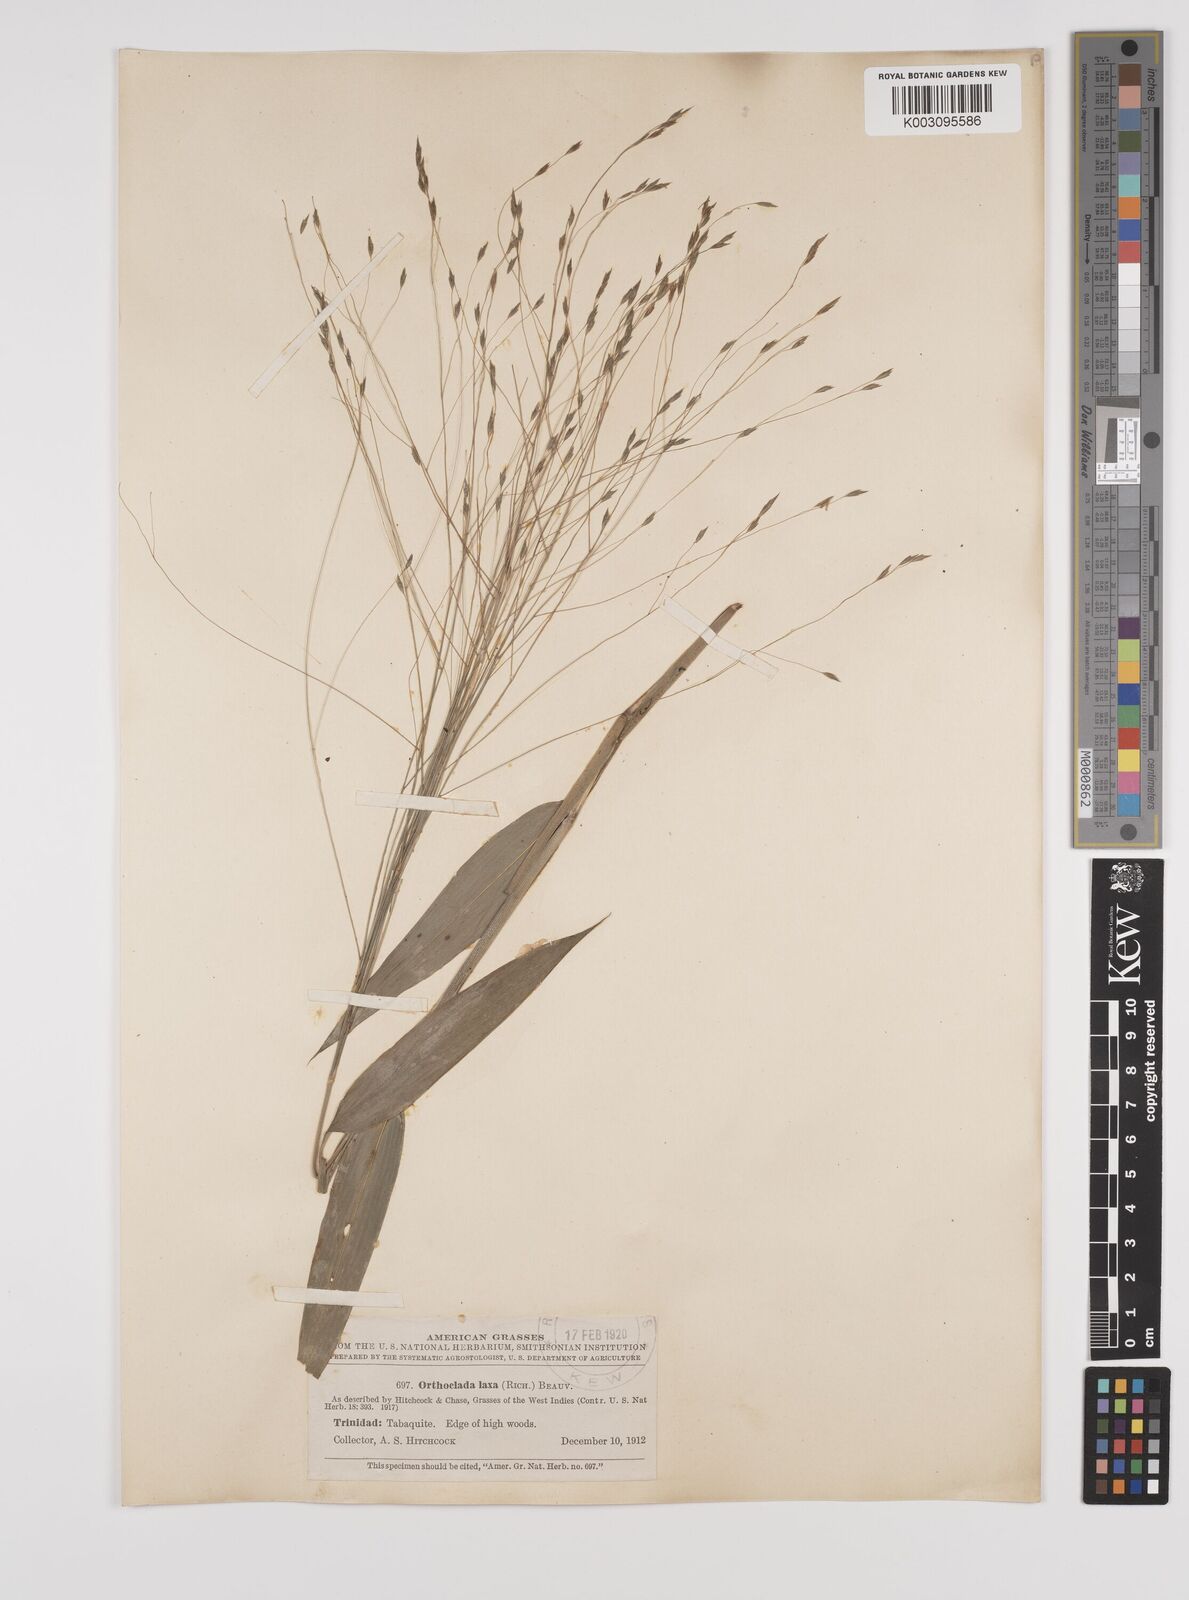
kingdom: Plantae
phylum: Tracheophyta
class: Liliopsida
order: Poales
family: Poaceae
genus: Orthoclada
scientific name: Orthoclada laxa
